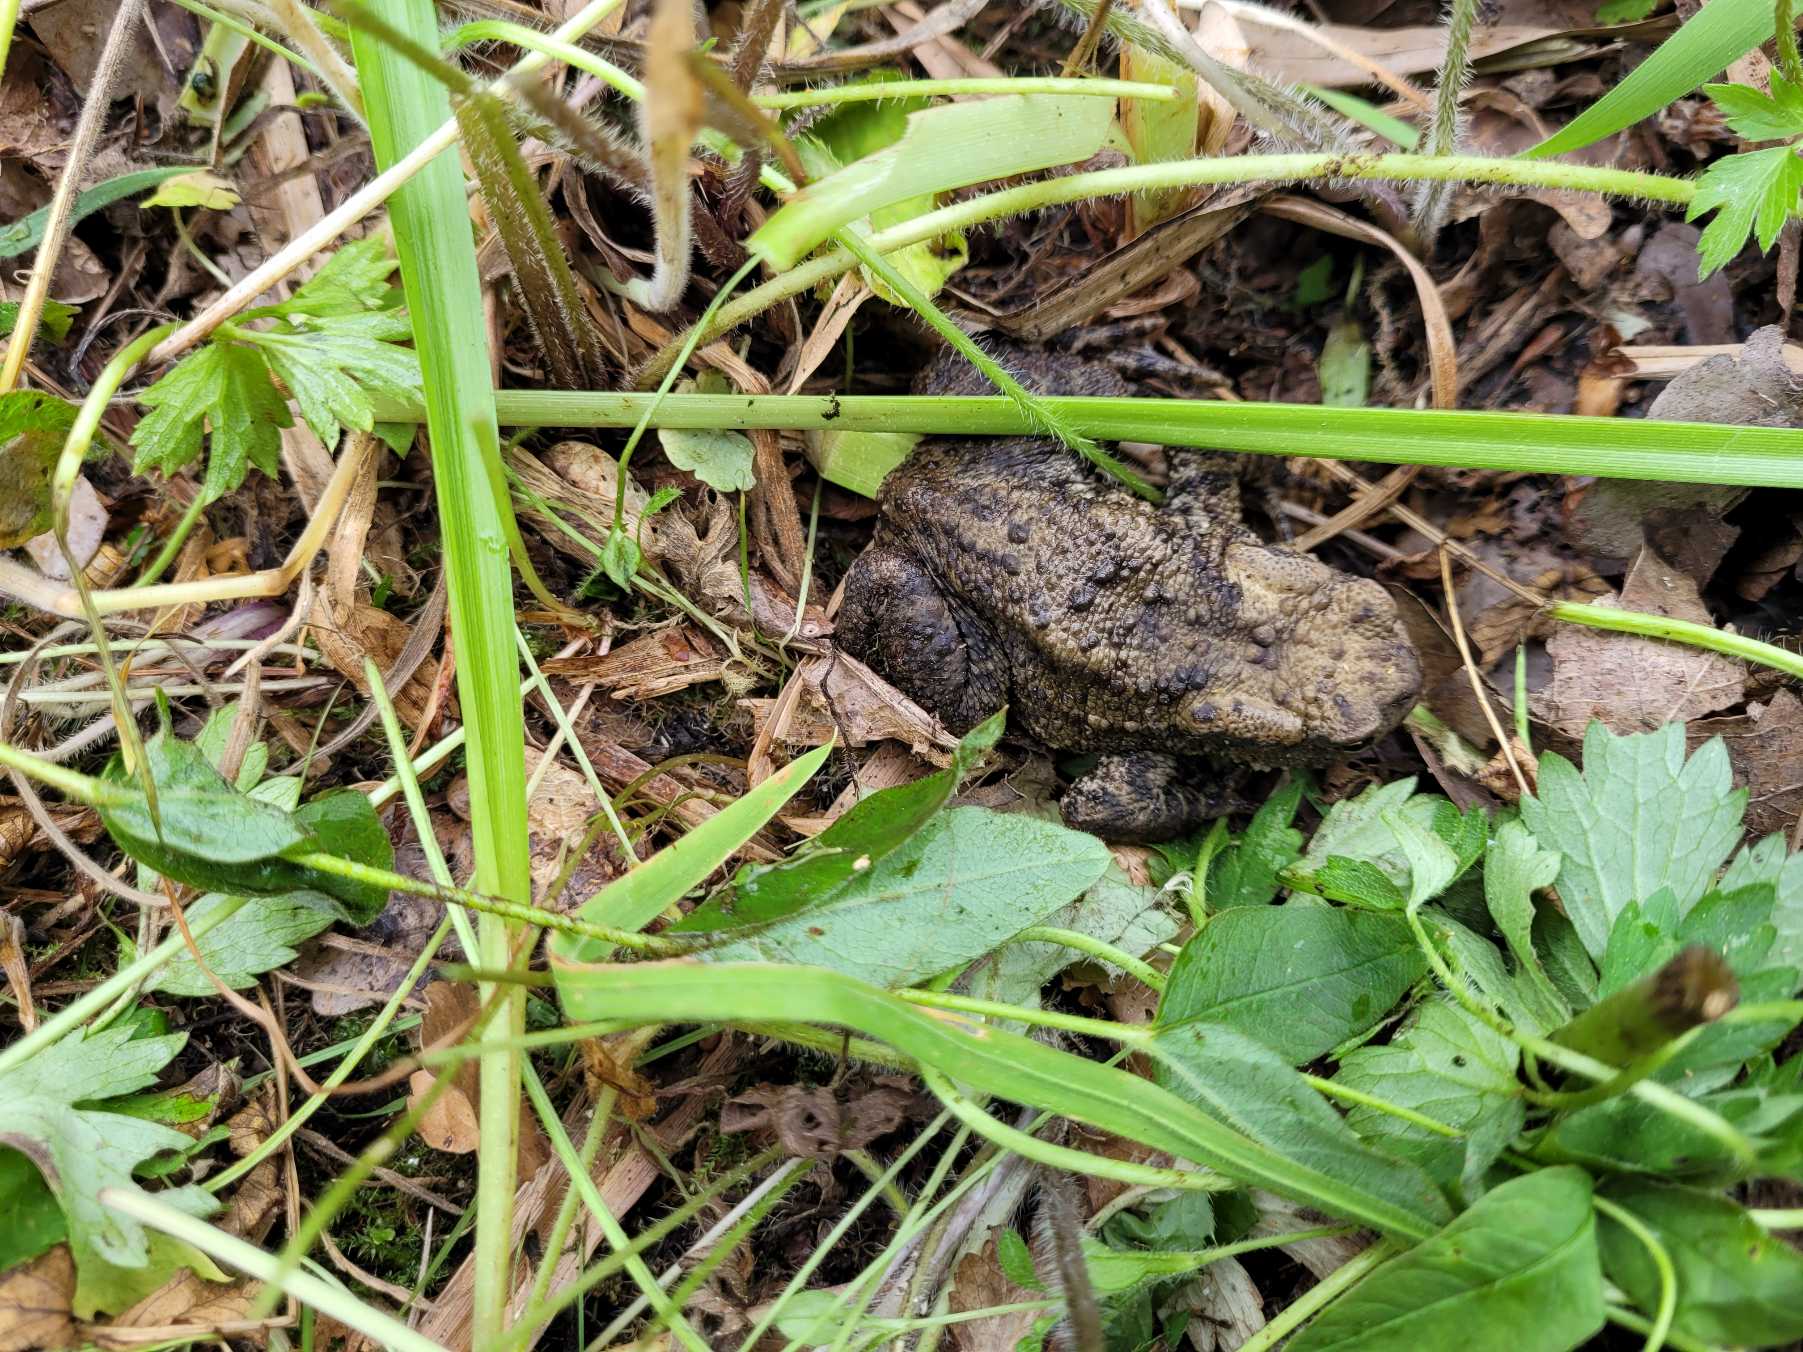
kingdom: Animalia
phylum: Chordata
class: Amphibia
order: Anura
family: Bufonidae
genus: Bufo
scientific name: Bufo bufo
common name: Skrubtudse
